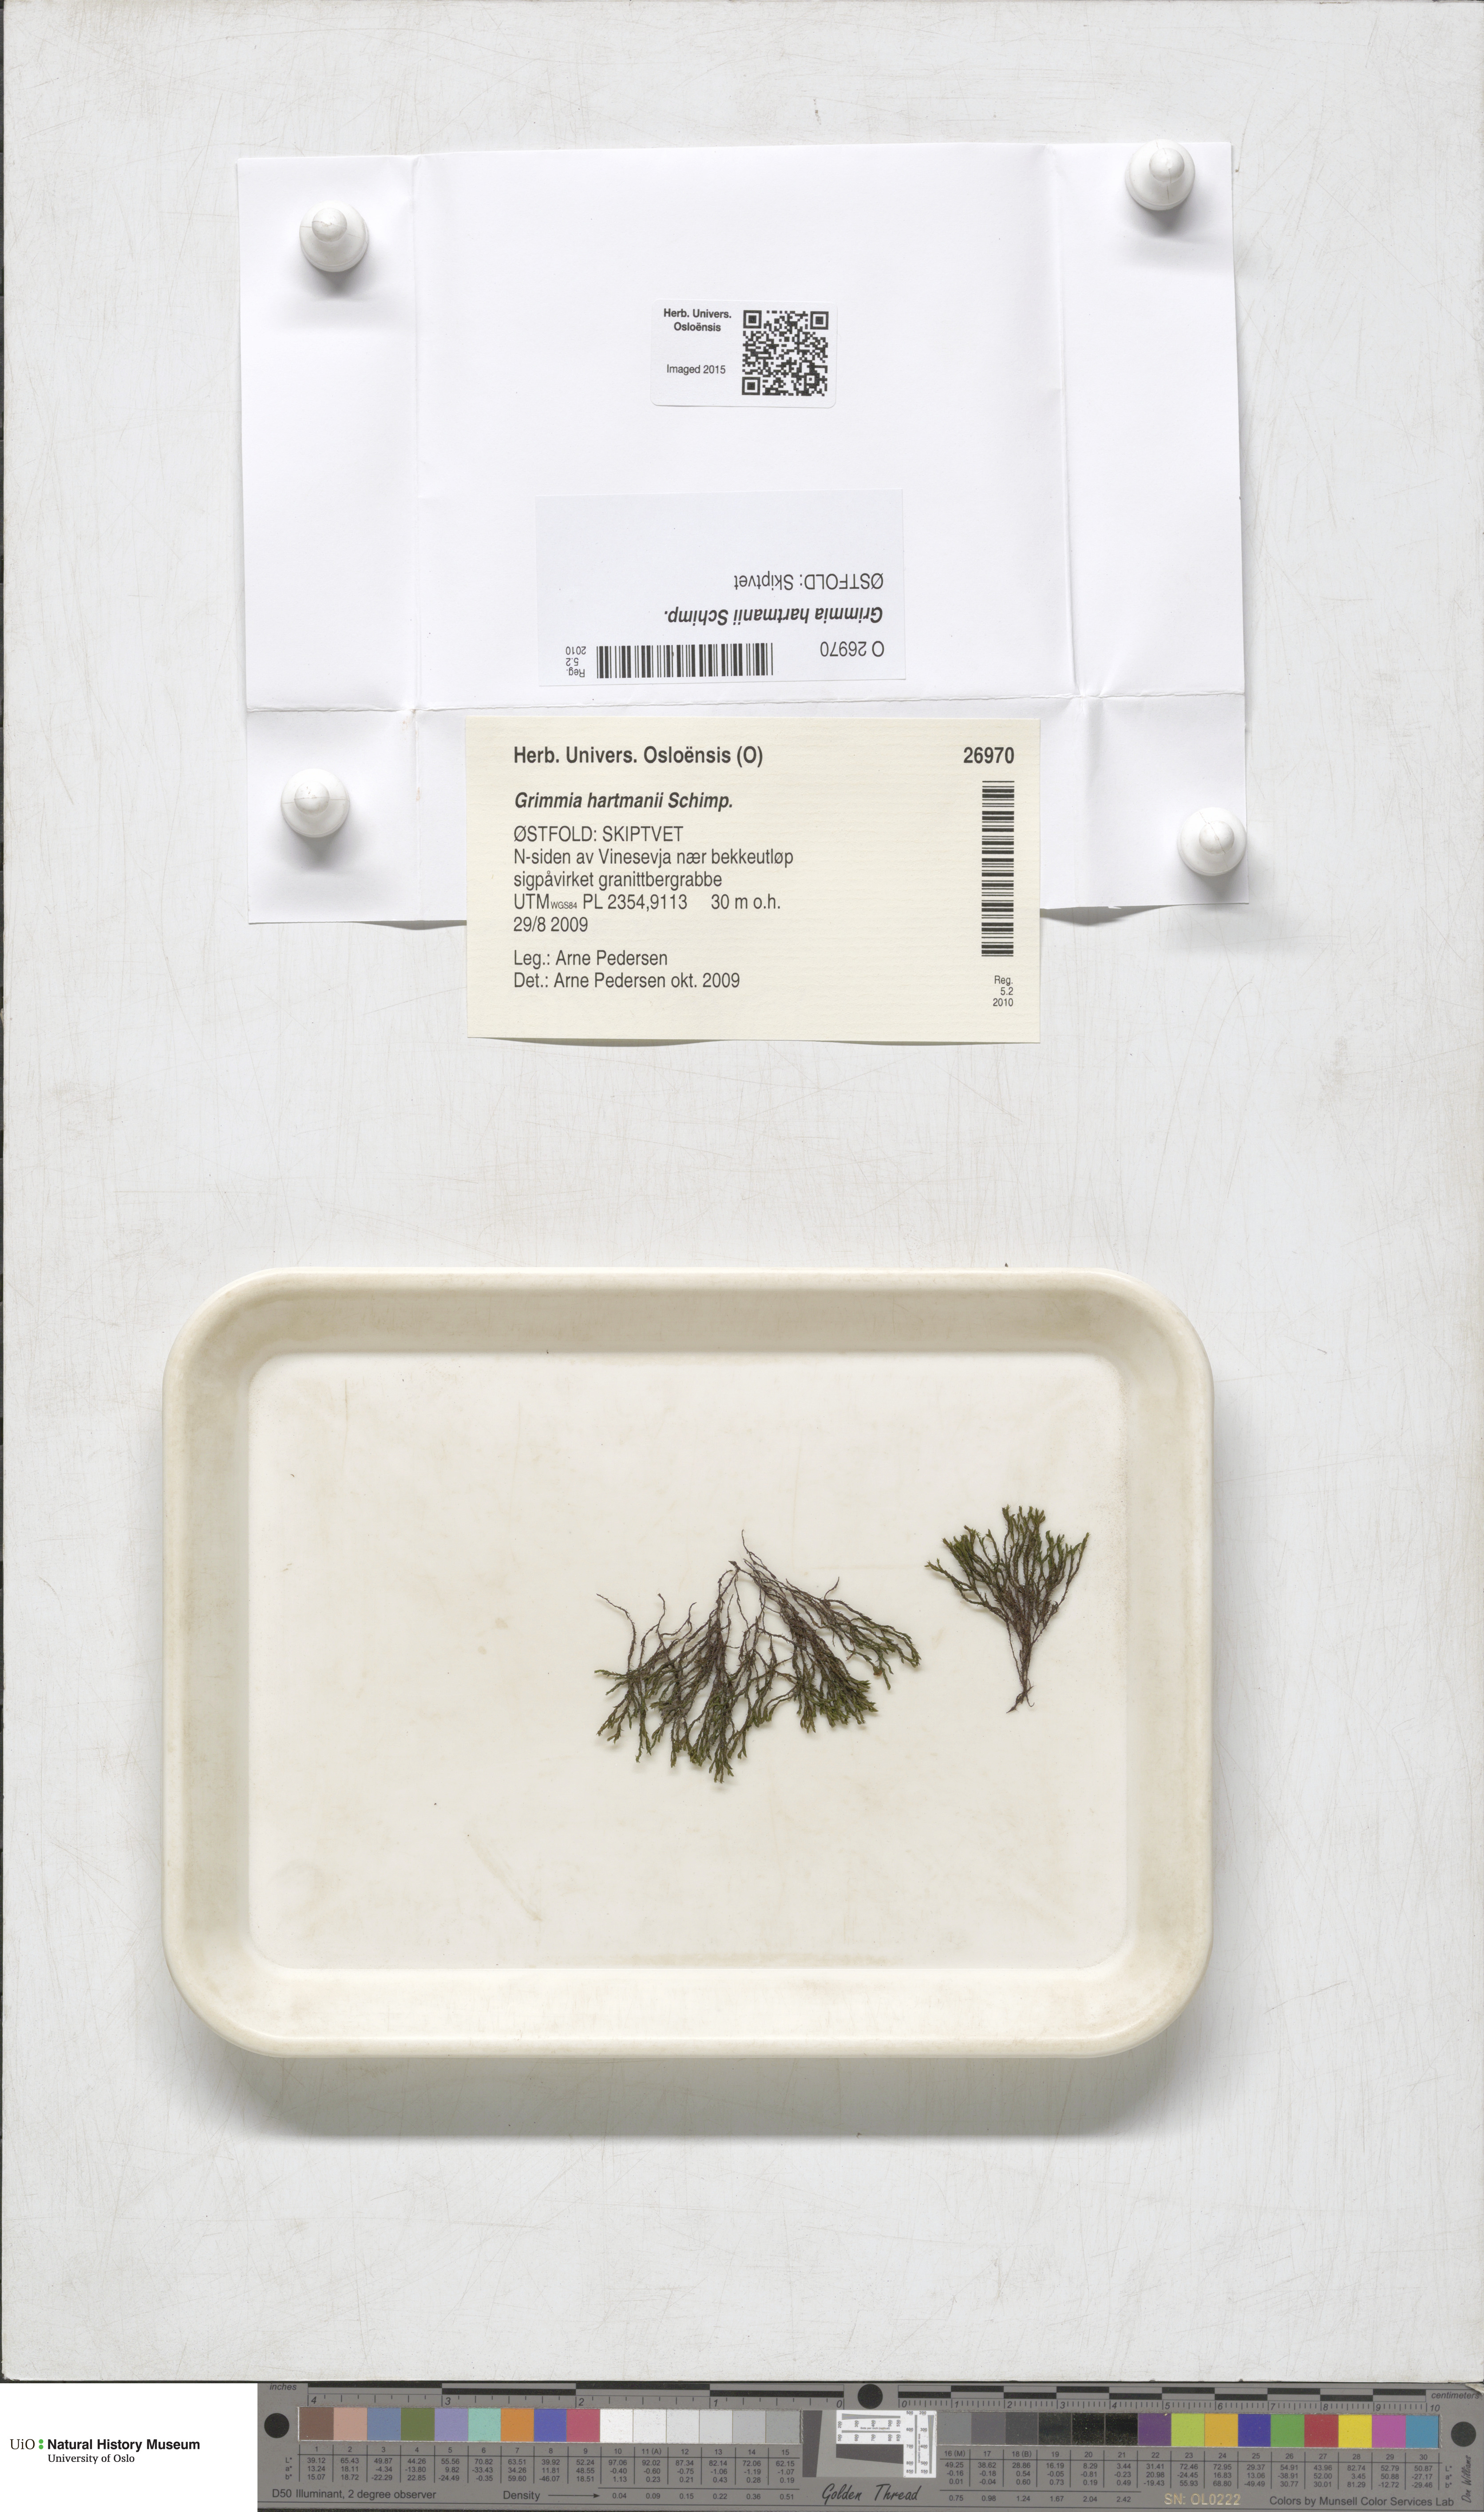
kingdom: Plantae
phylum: Bryophyta
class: Bryopsida
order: Grimmiales
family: Grimmiaceae
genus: Grimmia
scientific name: Grimmia hartmanii
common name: Hartman's grimmia
